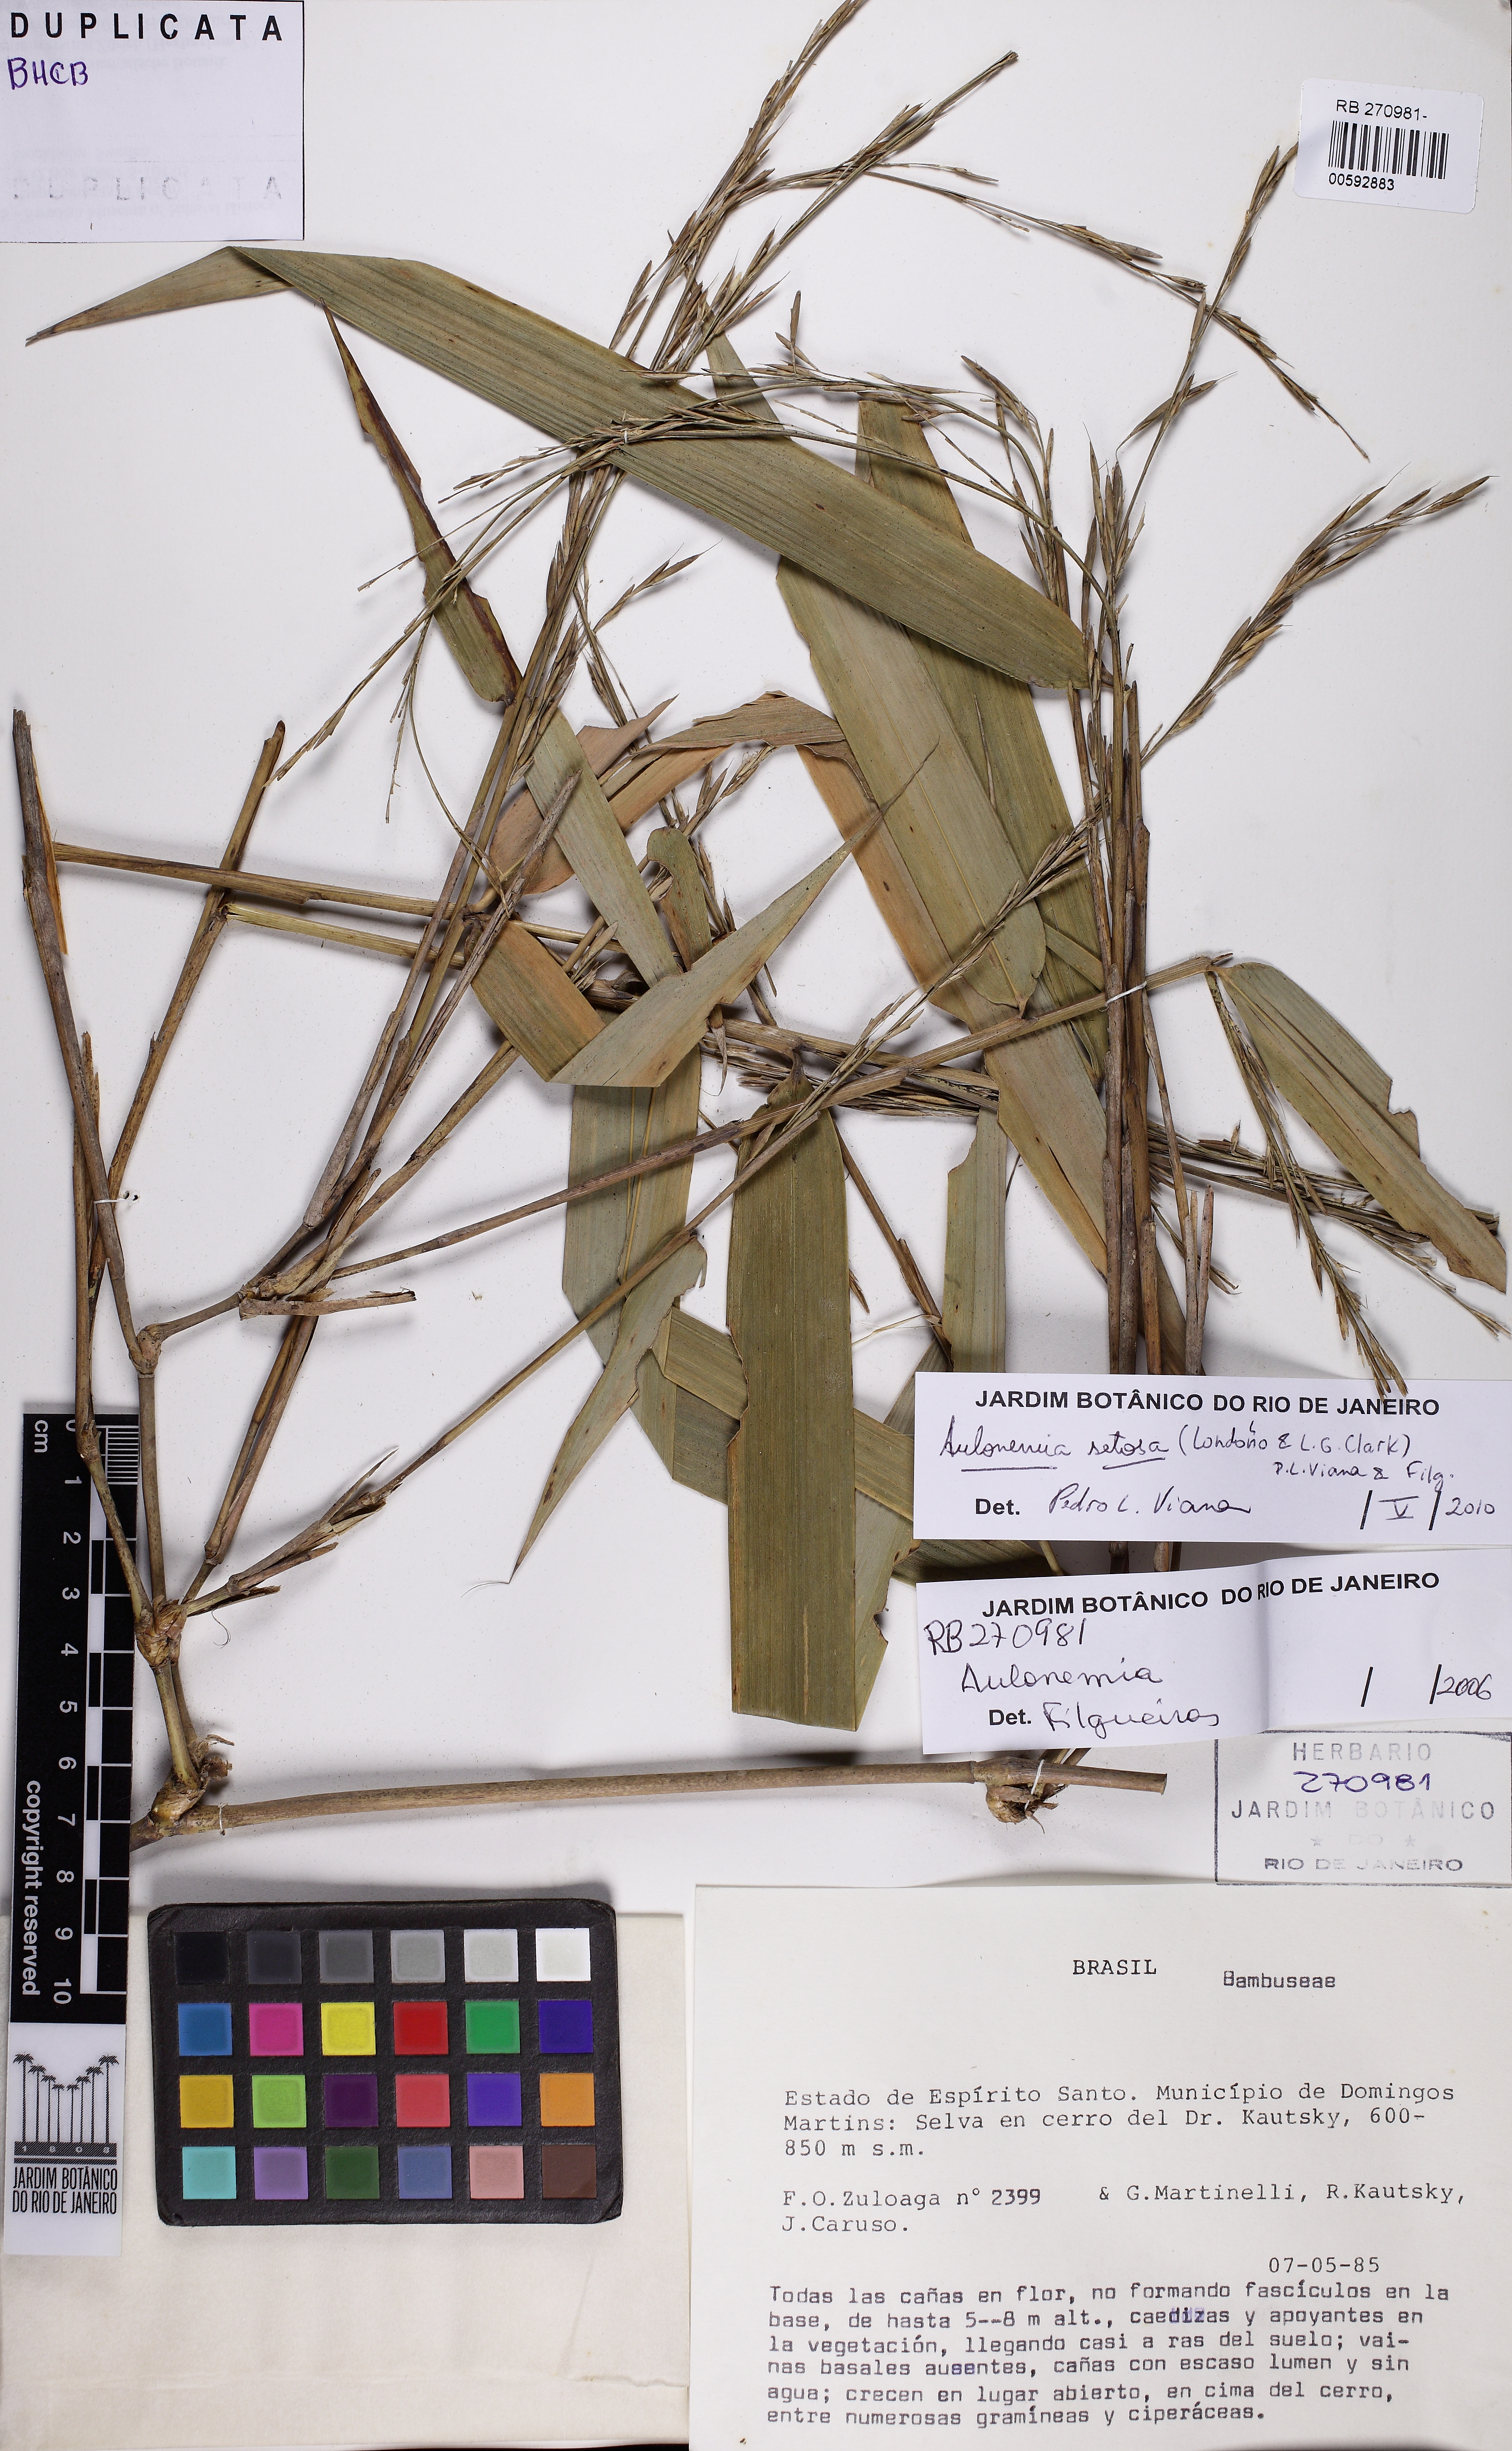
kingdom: Plantae
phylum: Tracheophyta
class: Liliopsida
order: Poales
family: Poaceae
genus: Aulonemia
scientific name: Aulonemia setosa
